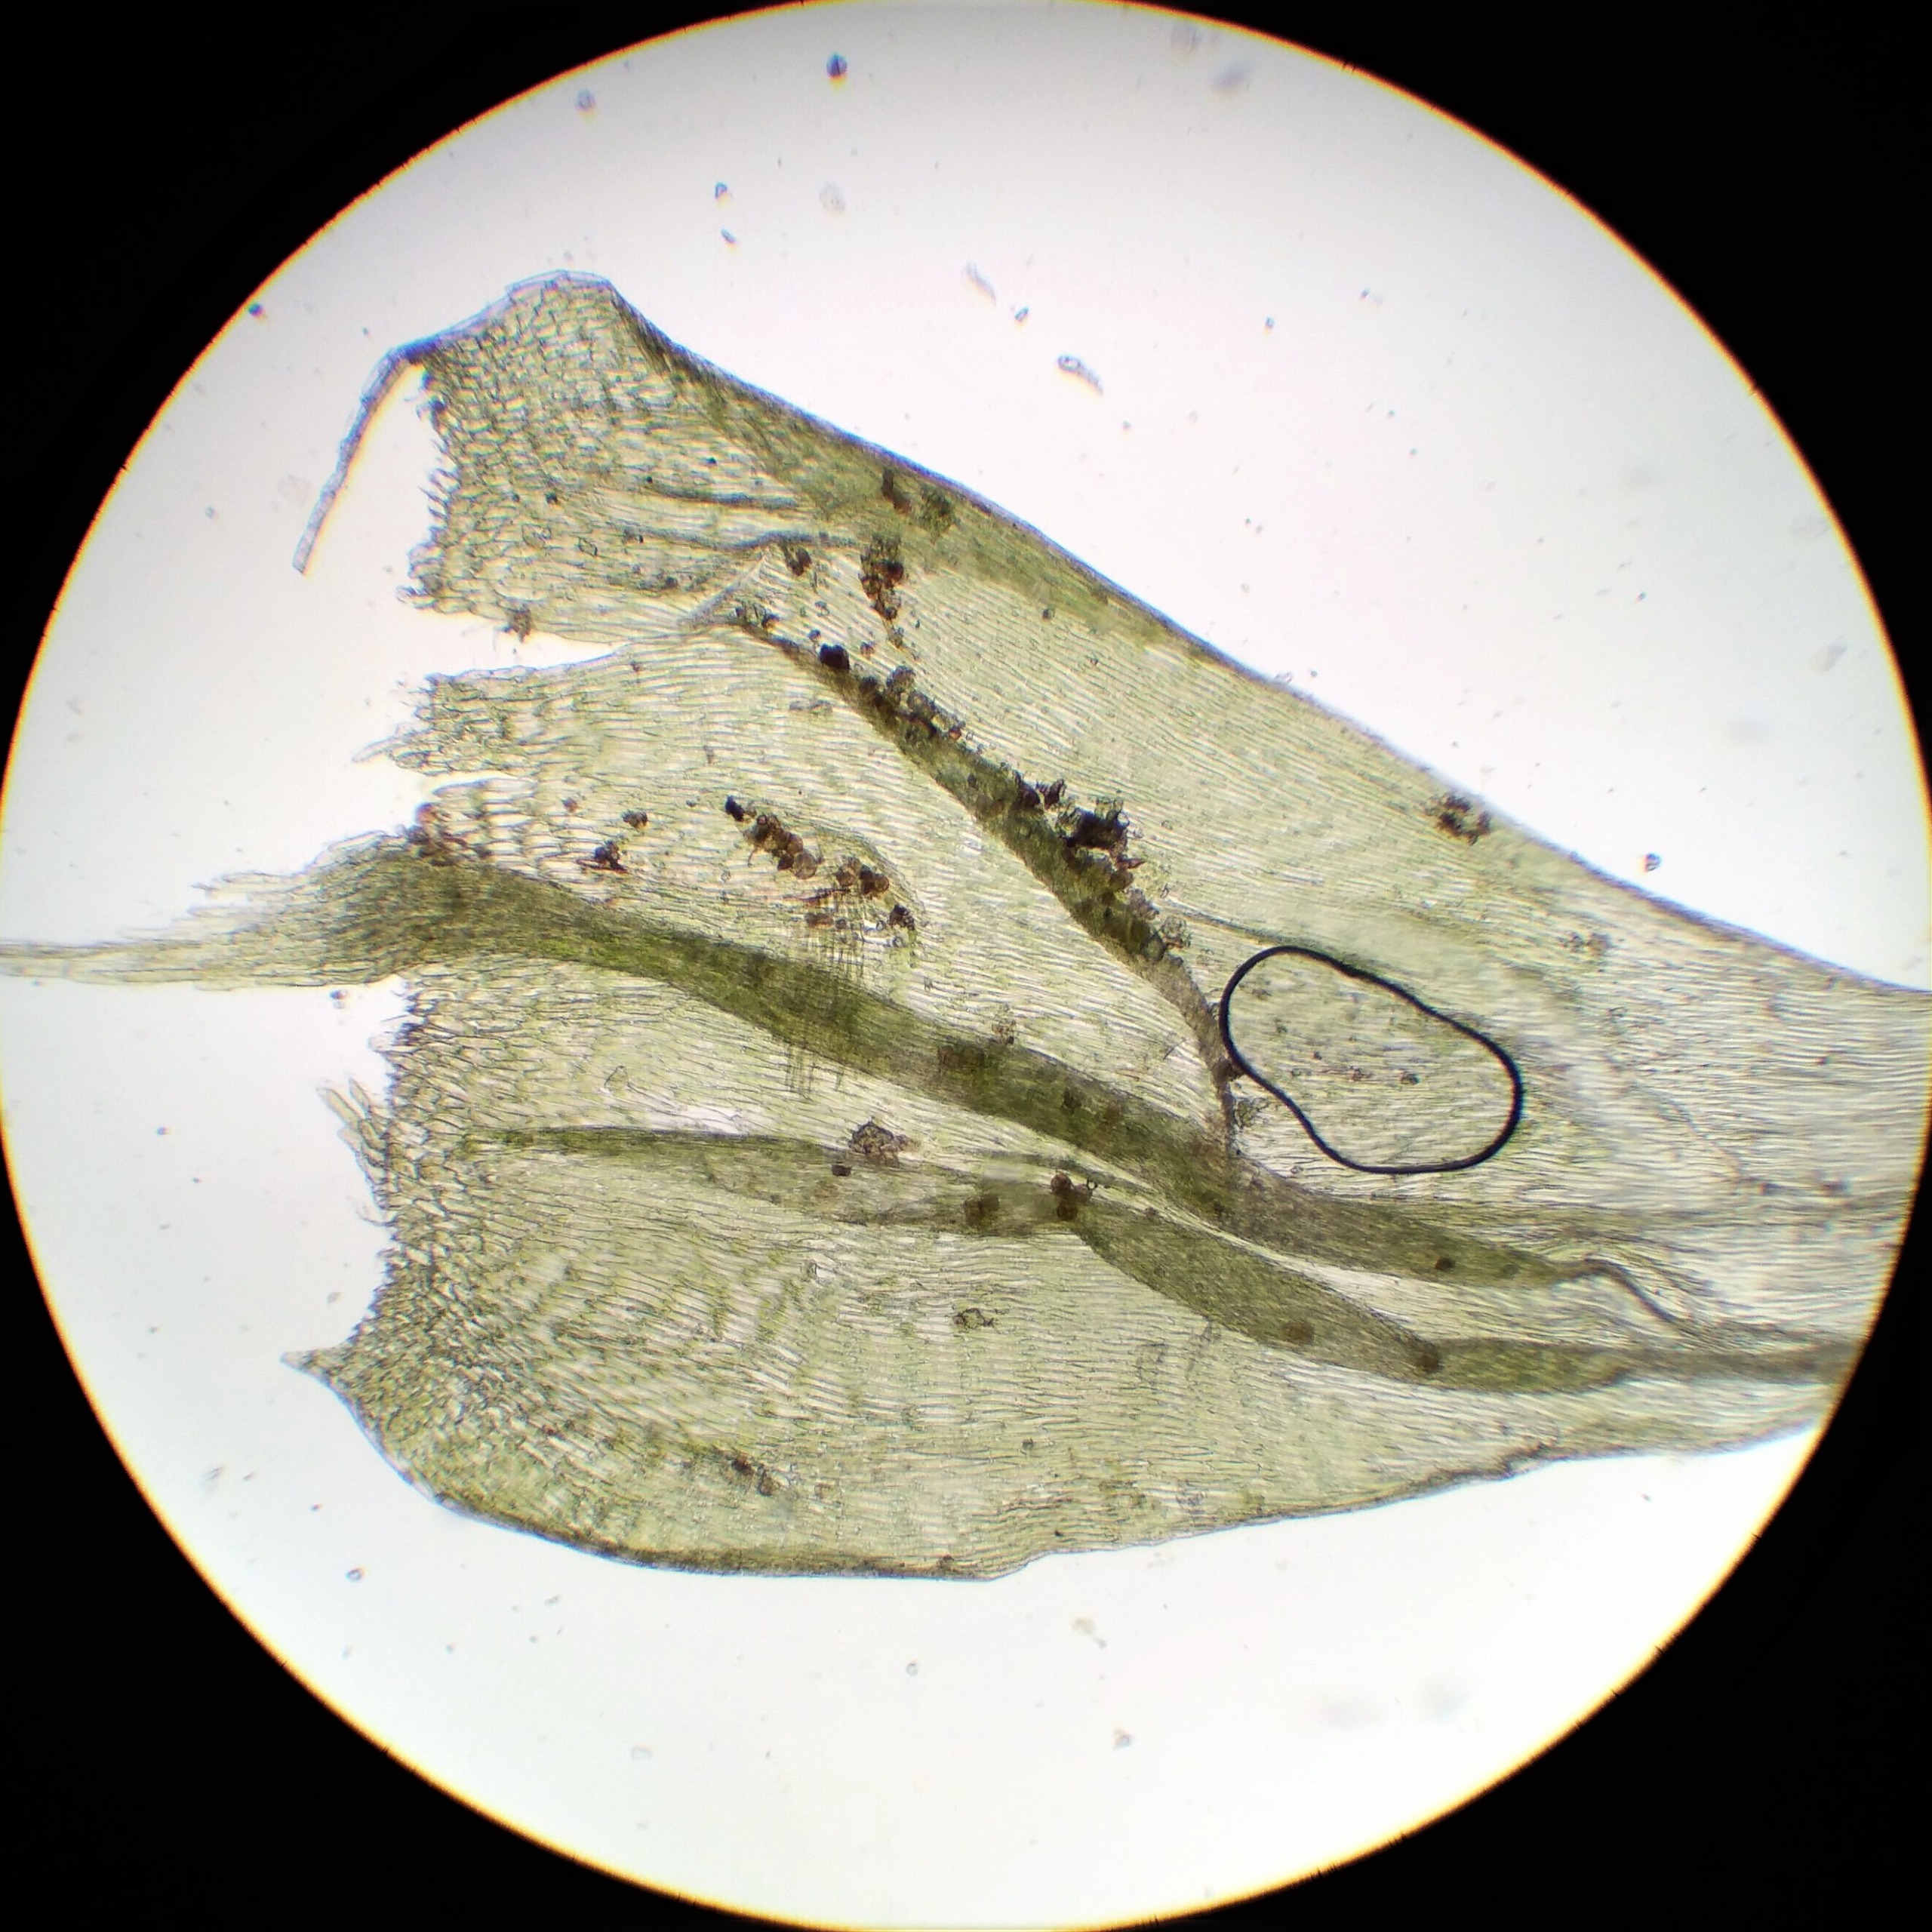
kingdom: Plantae
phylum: Bryophyta
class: Bryopsida
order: Hypnales
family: Brachytheciaceae
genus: Brachythecium
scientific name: Brachythecium salebrosum
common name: Skov-kortkapsel
